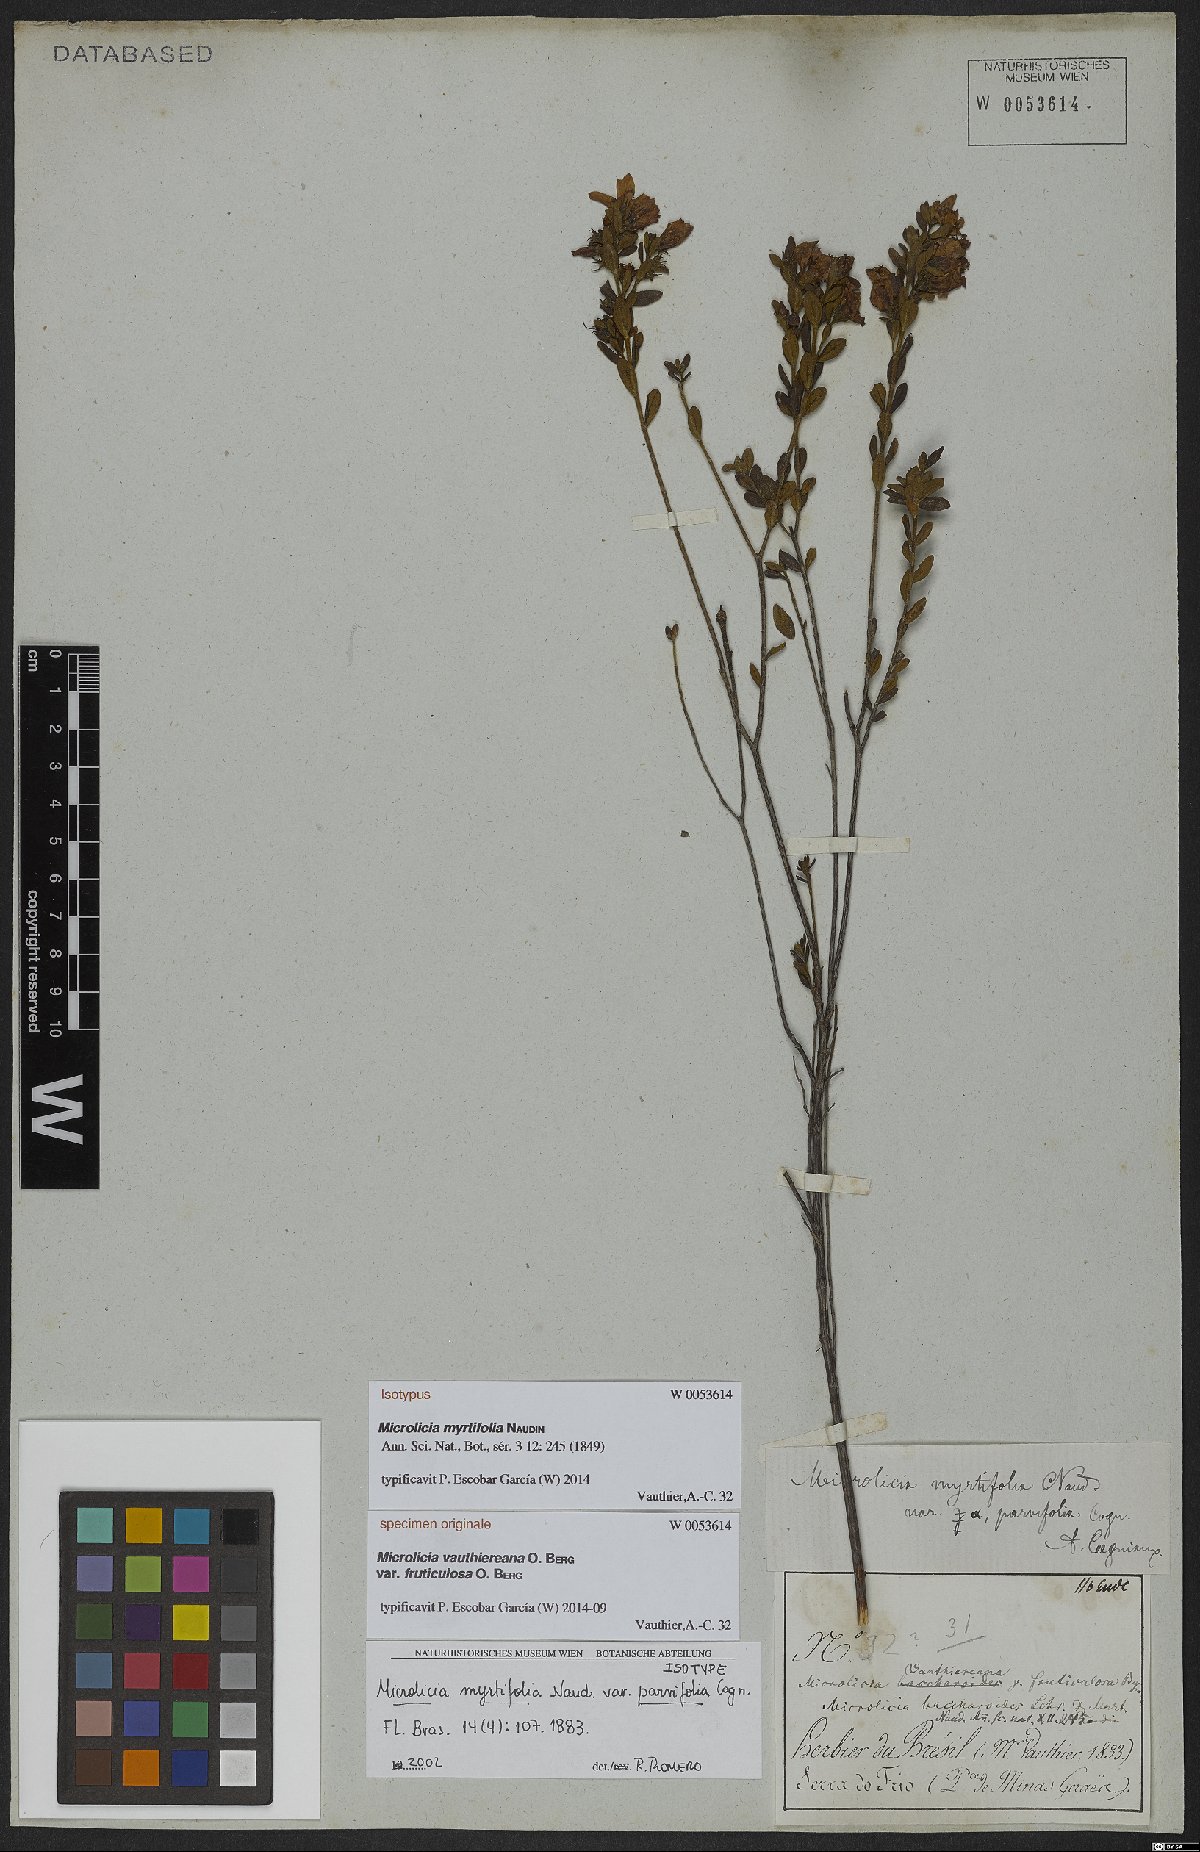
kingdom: Plantae
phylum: Tracheophyta
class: Magnoliopsida
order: Myrtales
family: Melastomataceae
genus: Microlicia
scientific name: Microlicia myrtifolia
